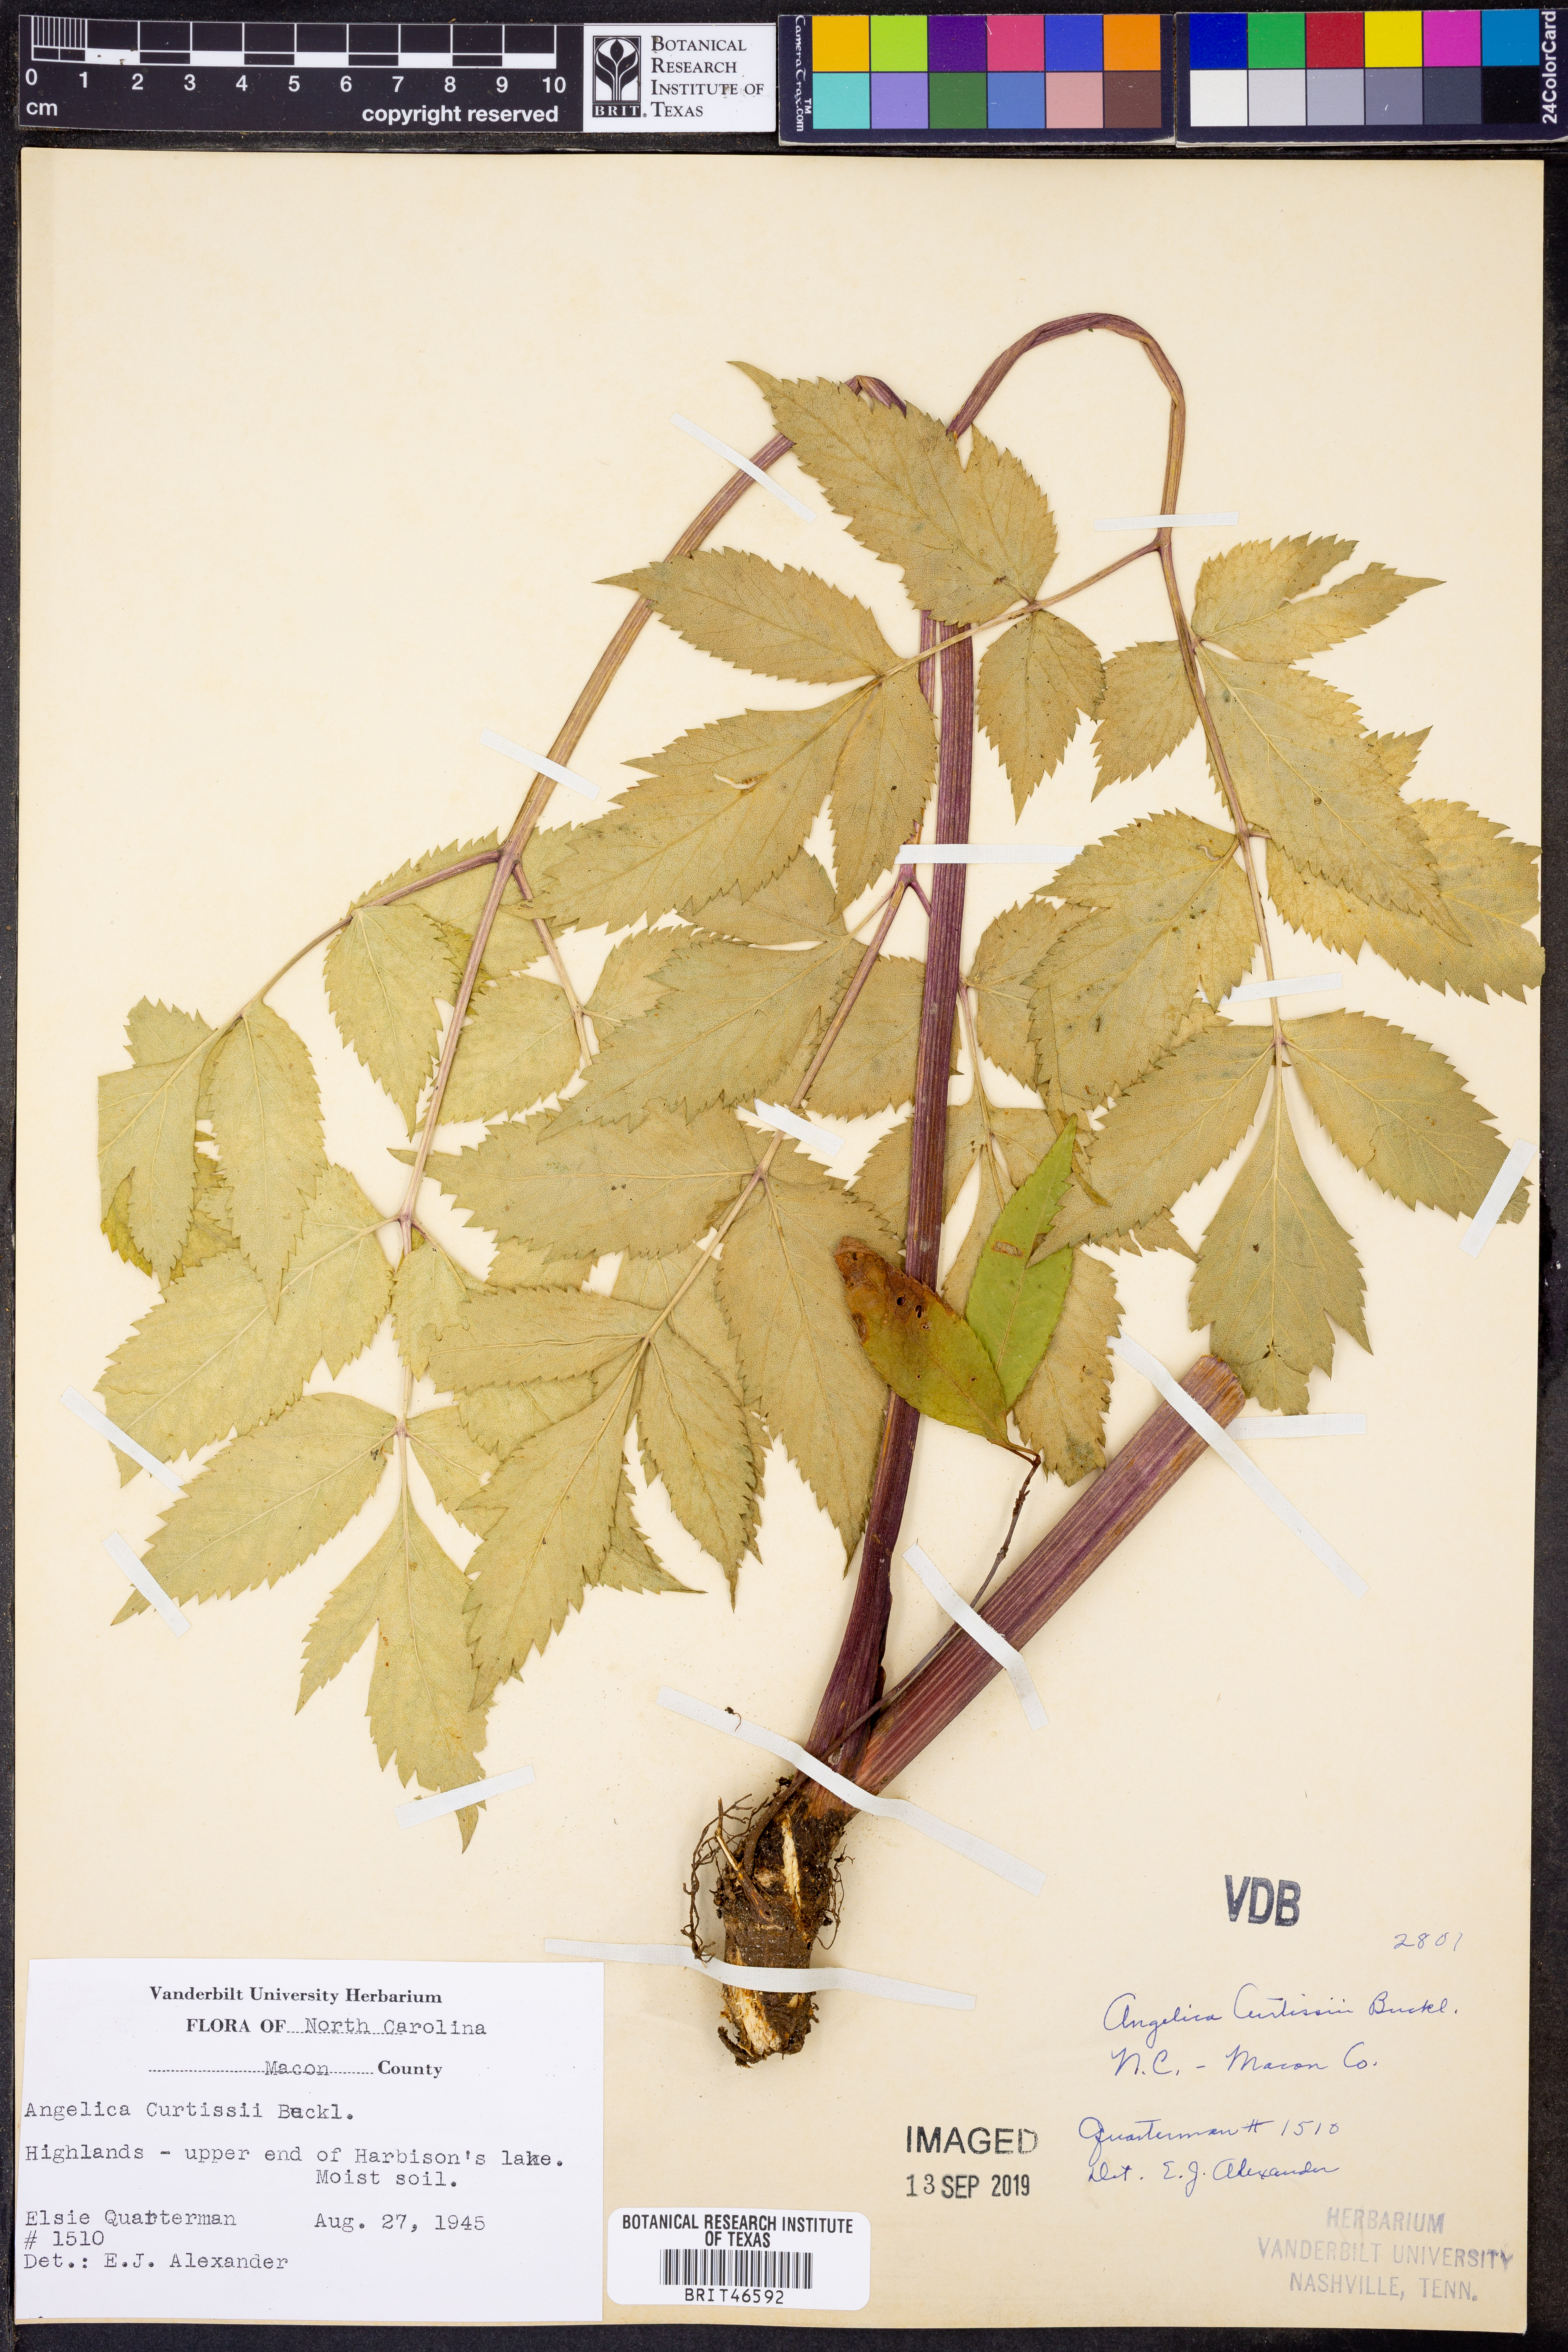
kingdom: Plantae
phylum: Tracheophyta
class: Magnoliopsida
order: Apiales
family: Apiaceae
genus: Angelica
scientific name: Angelica triquinata
